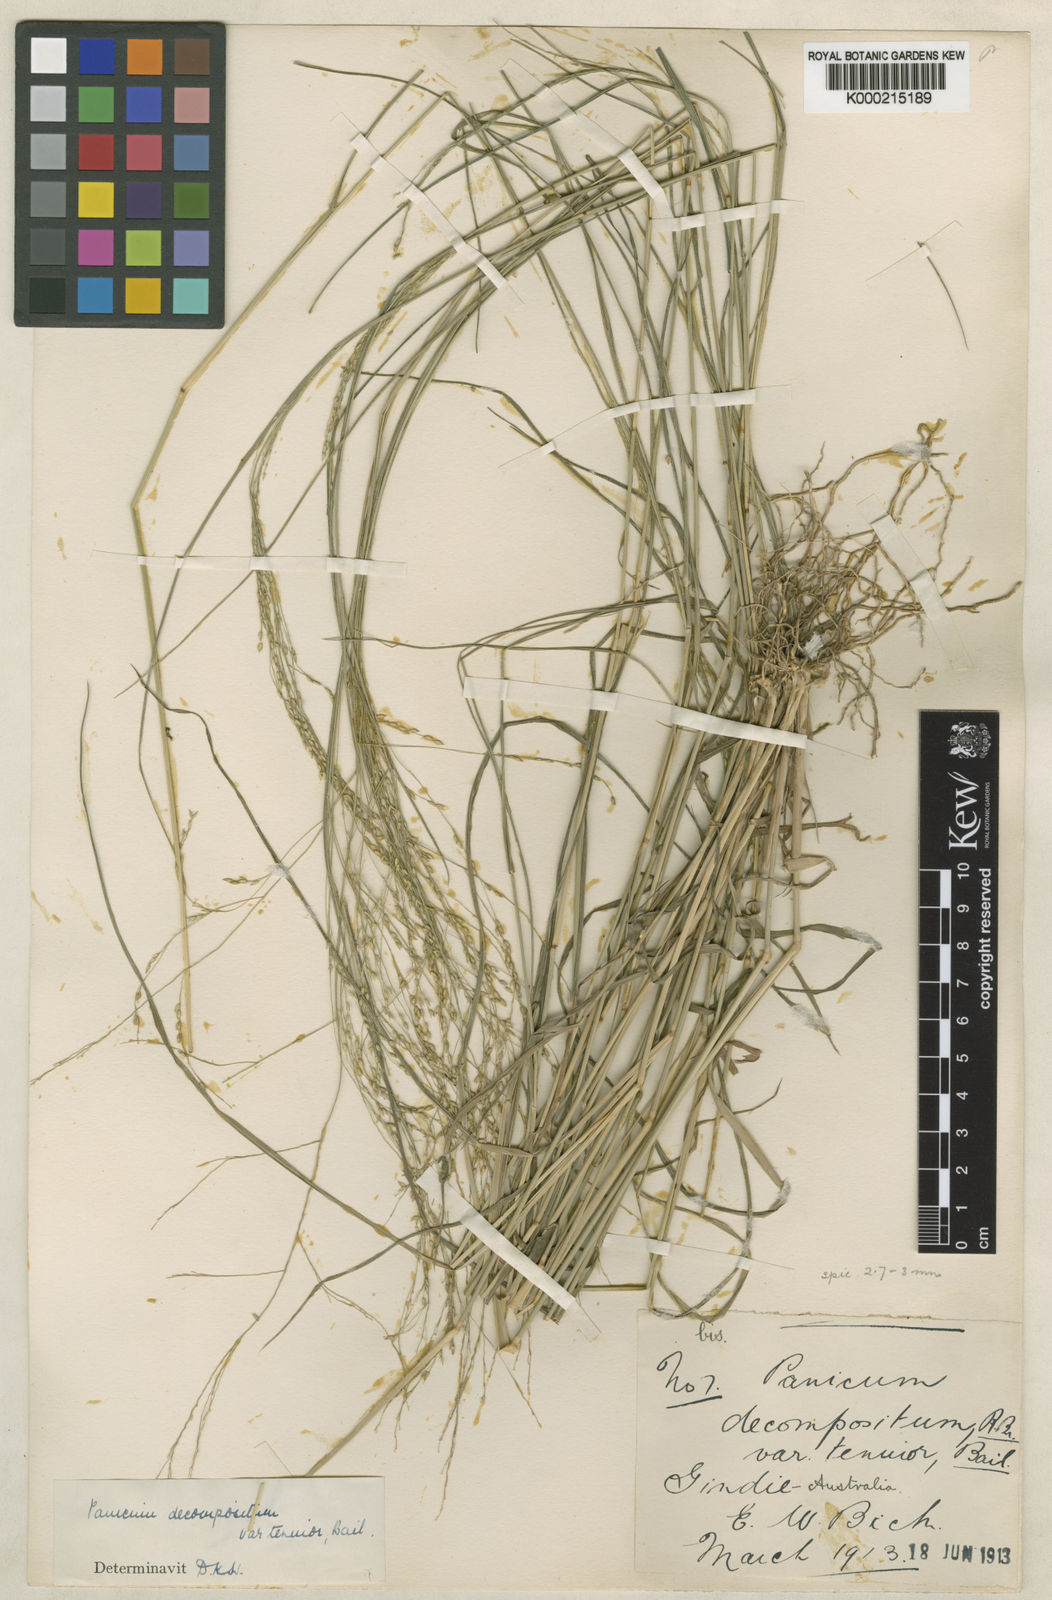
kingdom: Plantae
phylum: Tracheophyta
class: Liliopsida
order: Poales
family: Poaceae
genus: Panicum
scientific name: Panicum decompositum
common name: Australian millet
